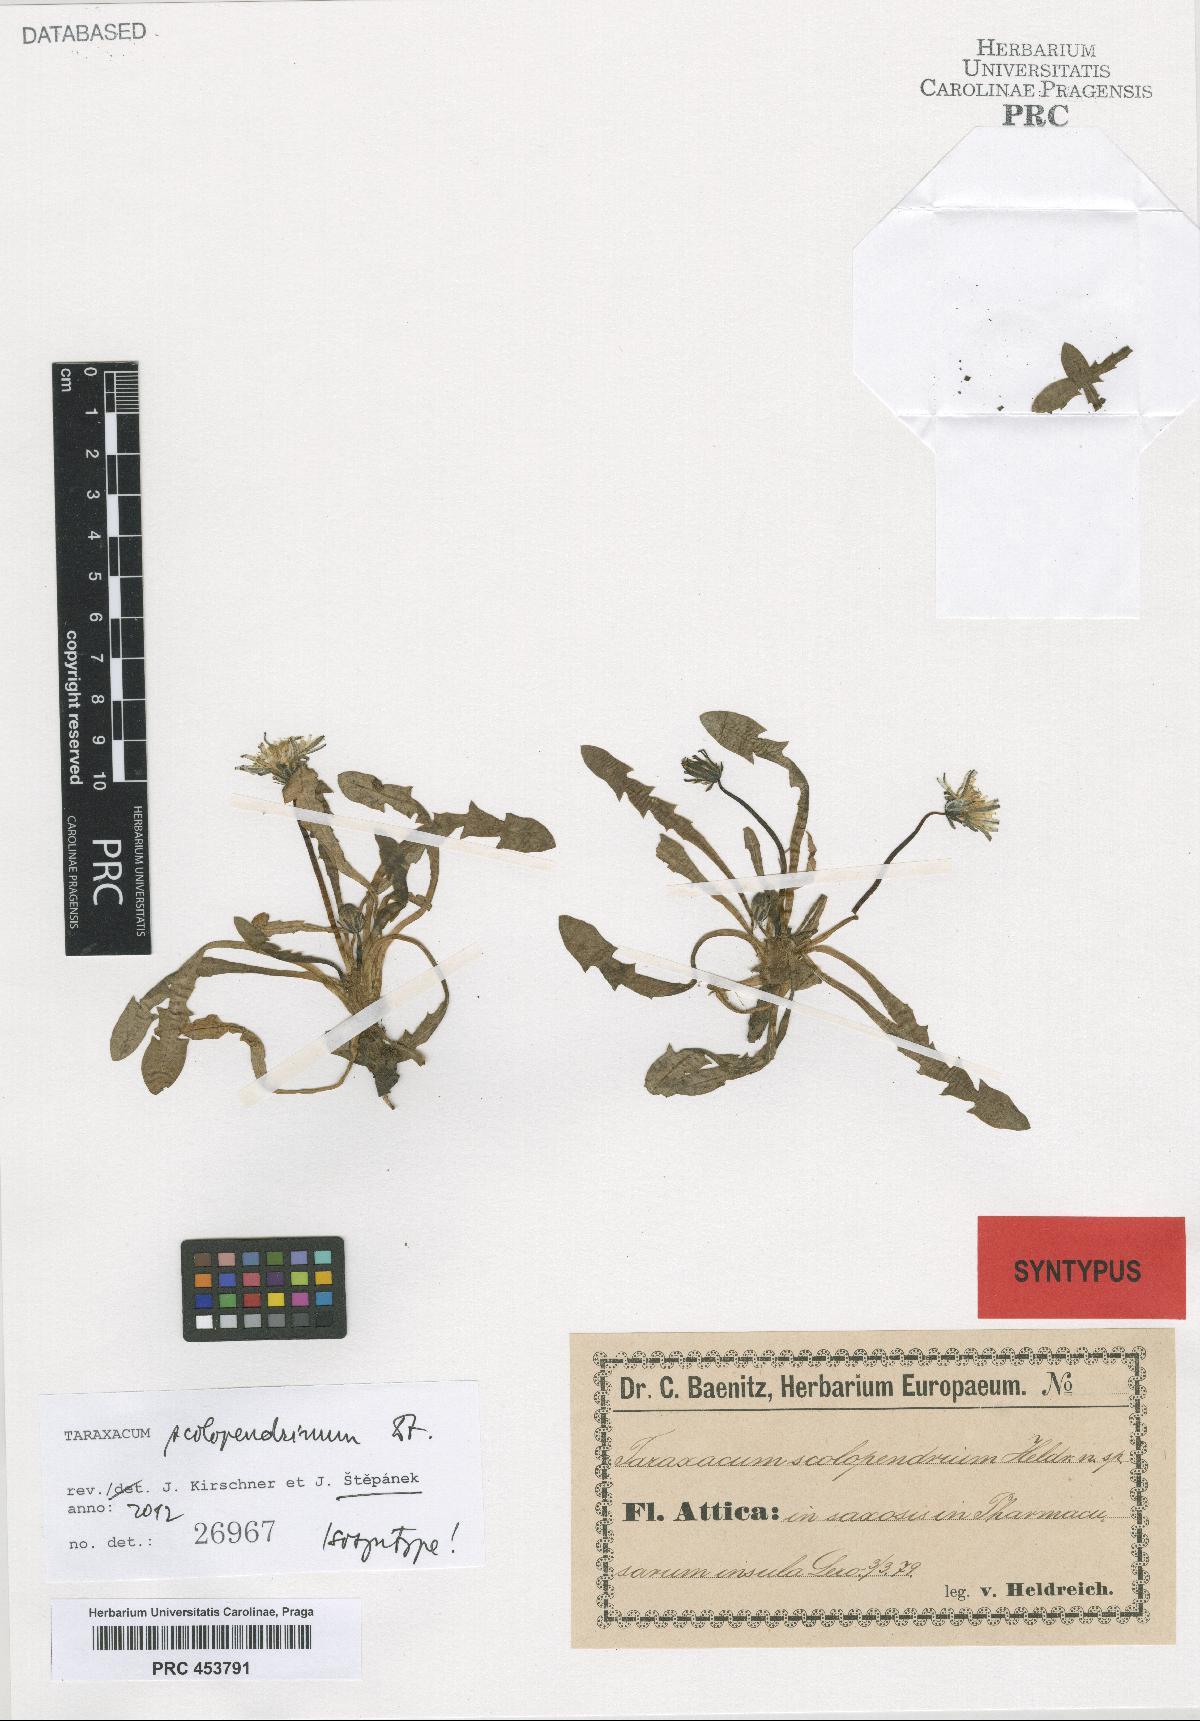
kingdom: Plantae
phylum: Tracheophyta
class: Magnoliopsida
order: Asterales
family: Asteraceae
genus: Taraxacum
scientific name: Taraxacum scolopendrinum
